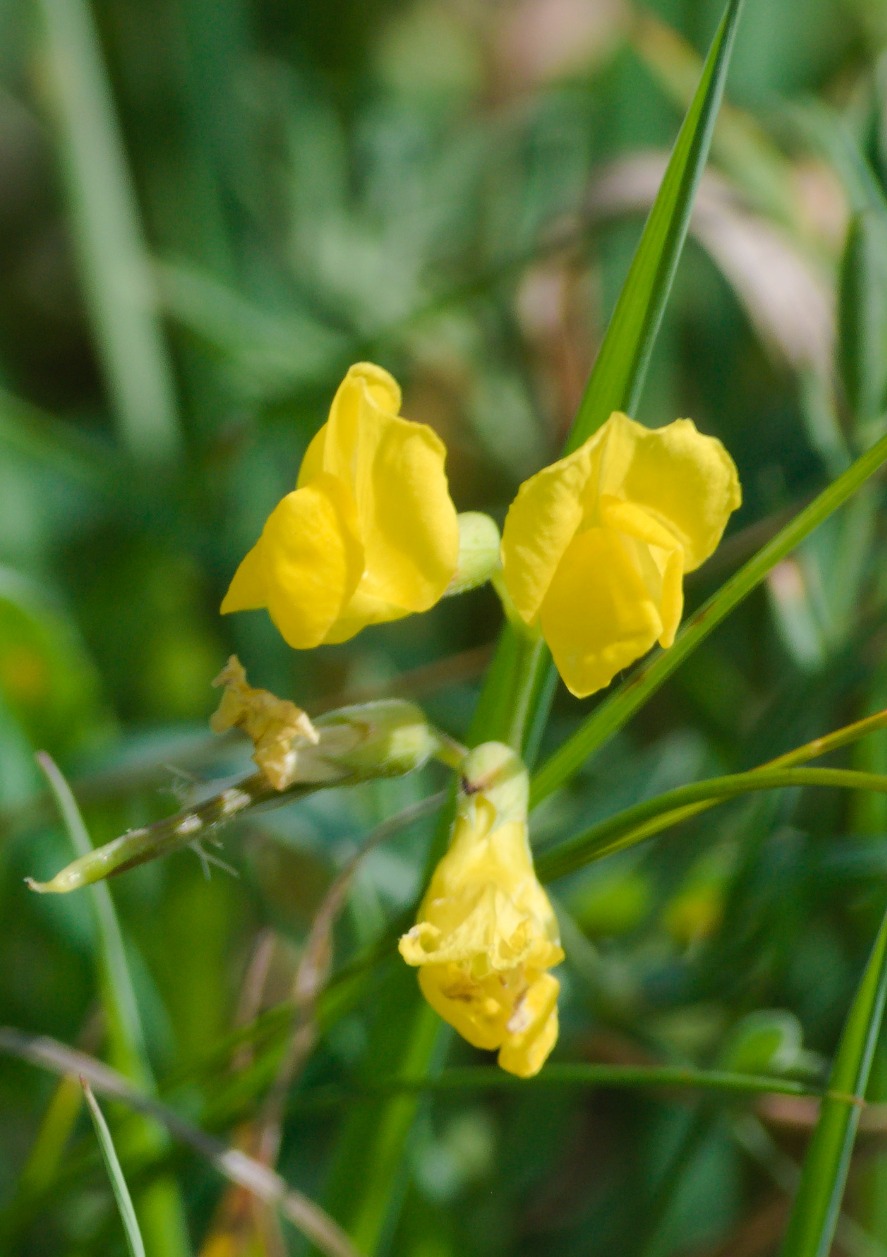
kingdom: Plantae
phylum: Tracheophyta
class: Magnoliopsida
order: Fabales
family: Fabaceae
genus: Lathyrus
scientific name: Lathyrus pratensis
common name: Gul fladbælg
